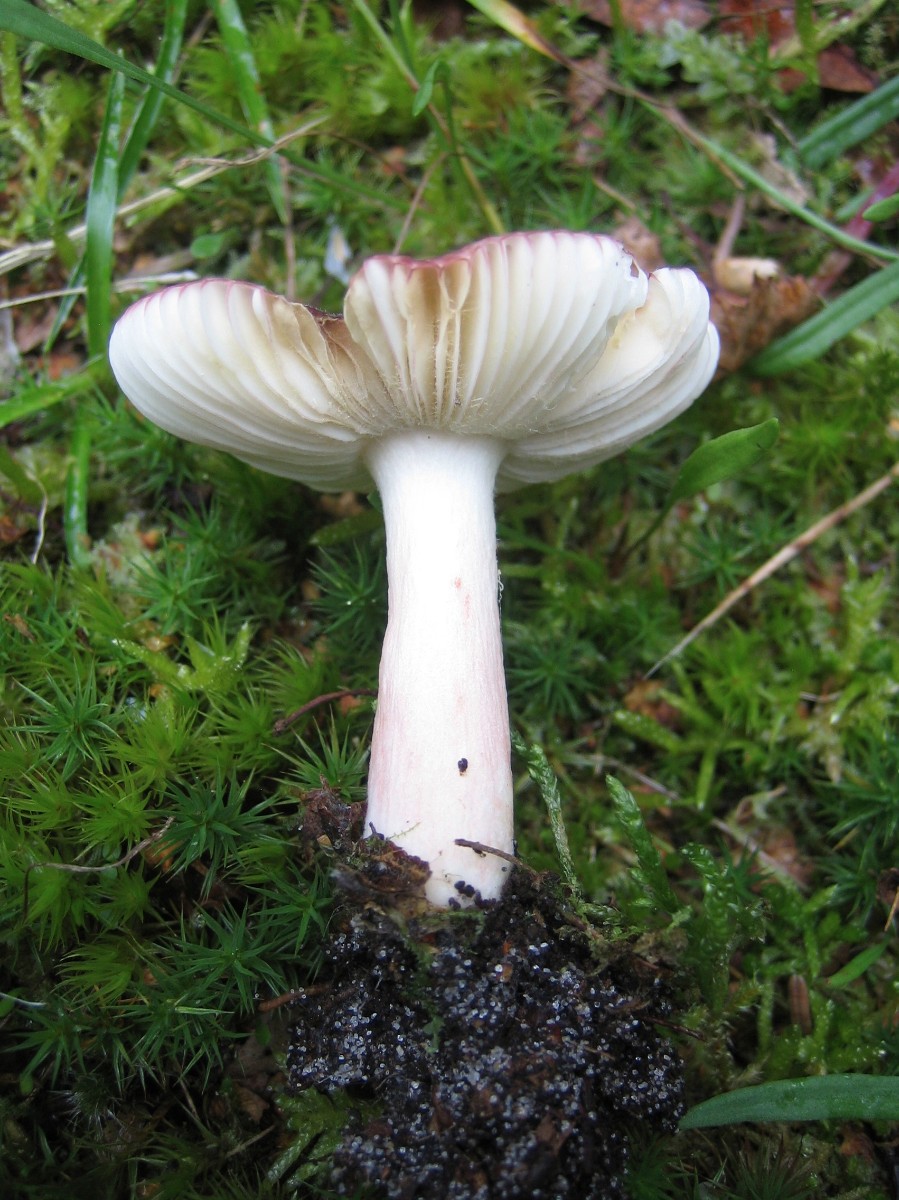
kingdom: Fungi
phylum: Basidiomycota
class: Agaricomycetes
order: Russulales
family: Russulaceae
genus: Russula
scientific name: Russula nitida
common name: året skørhat
